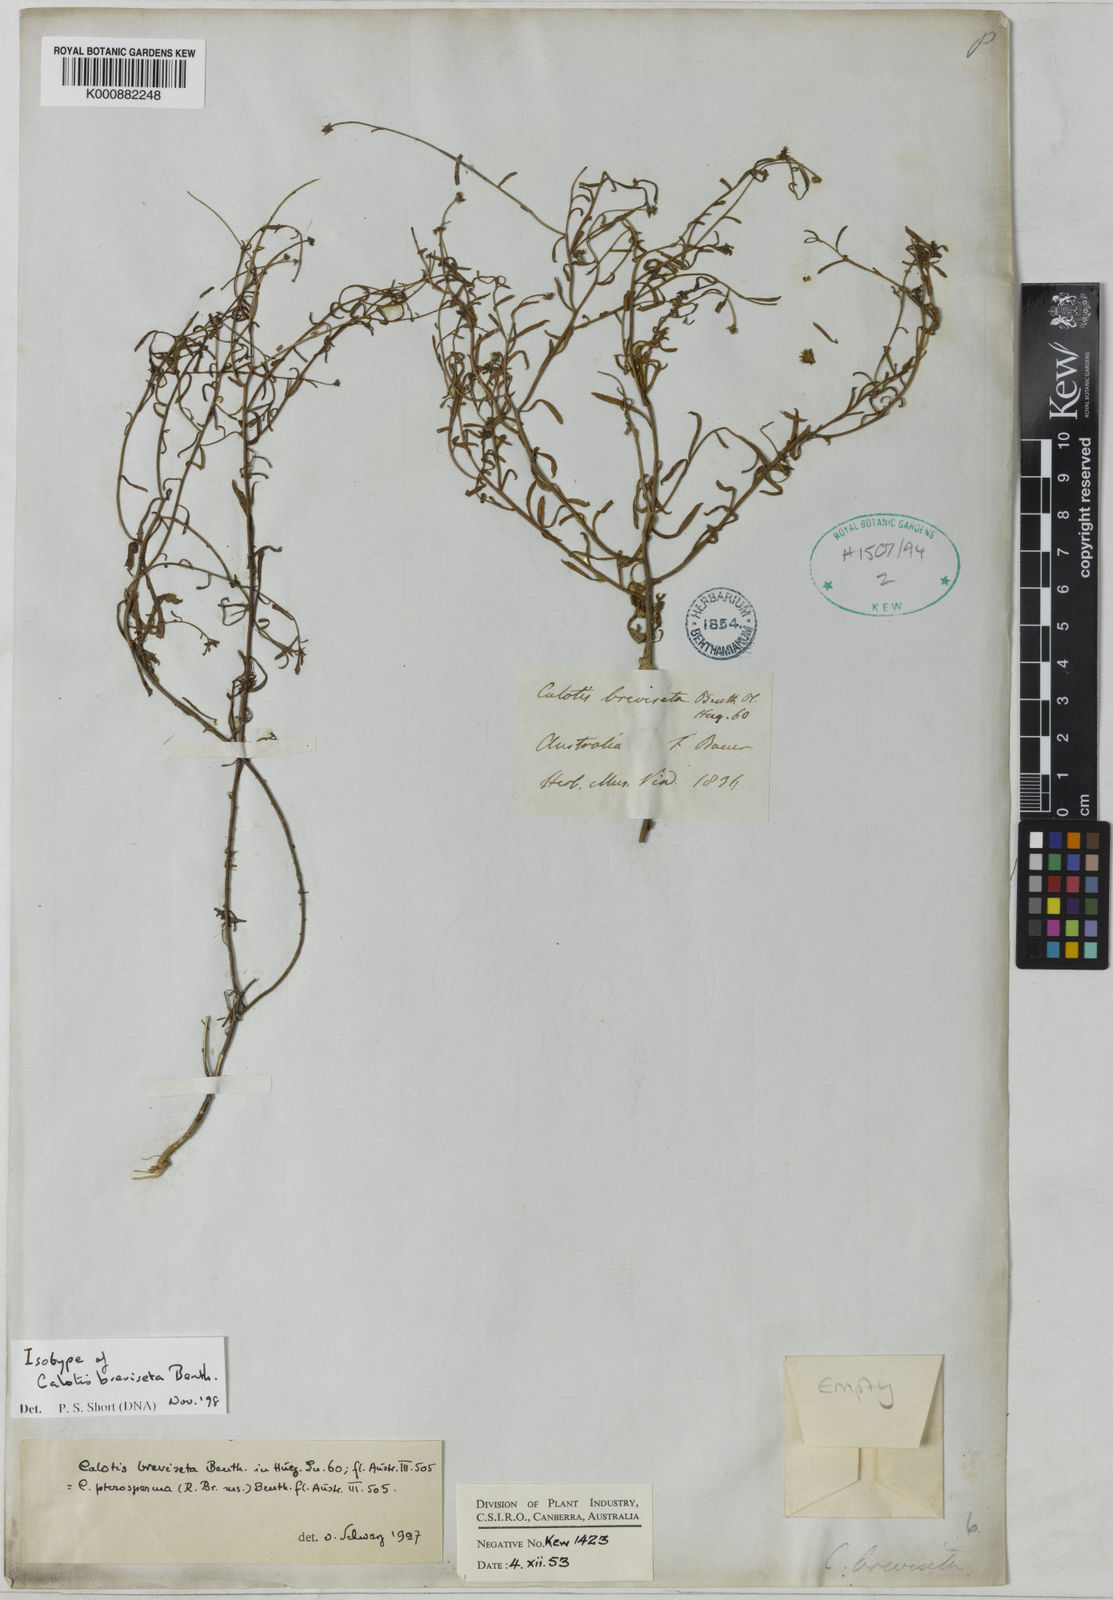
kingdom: Plantae
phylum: Tracheophyta
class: Magnoliopsida
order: Asterales
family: Asteraceae
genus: Calotis
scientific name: Calotis breviseta
